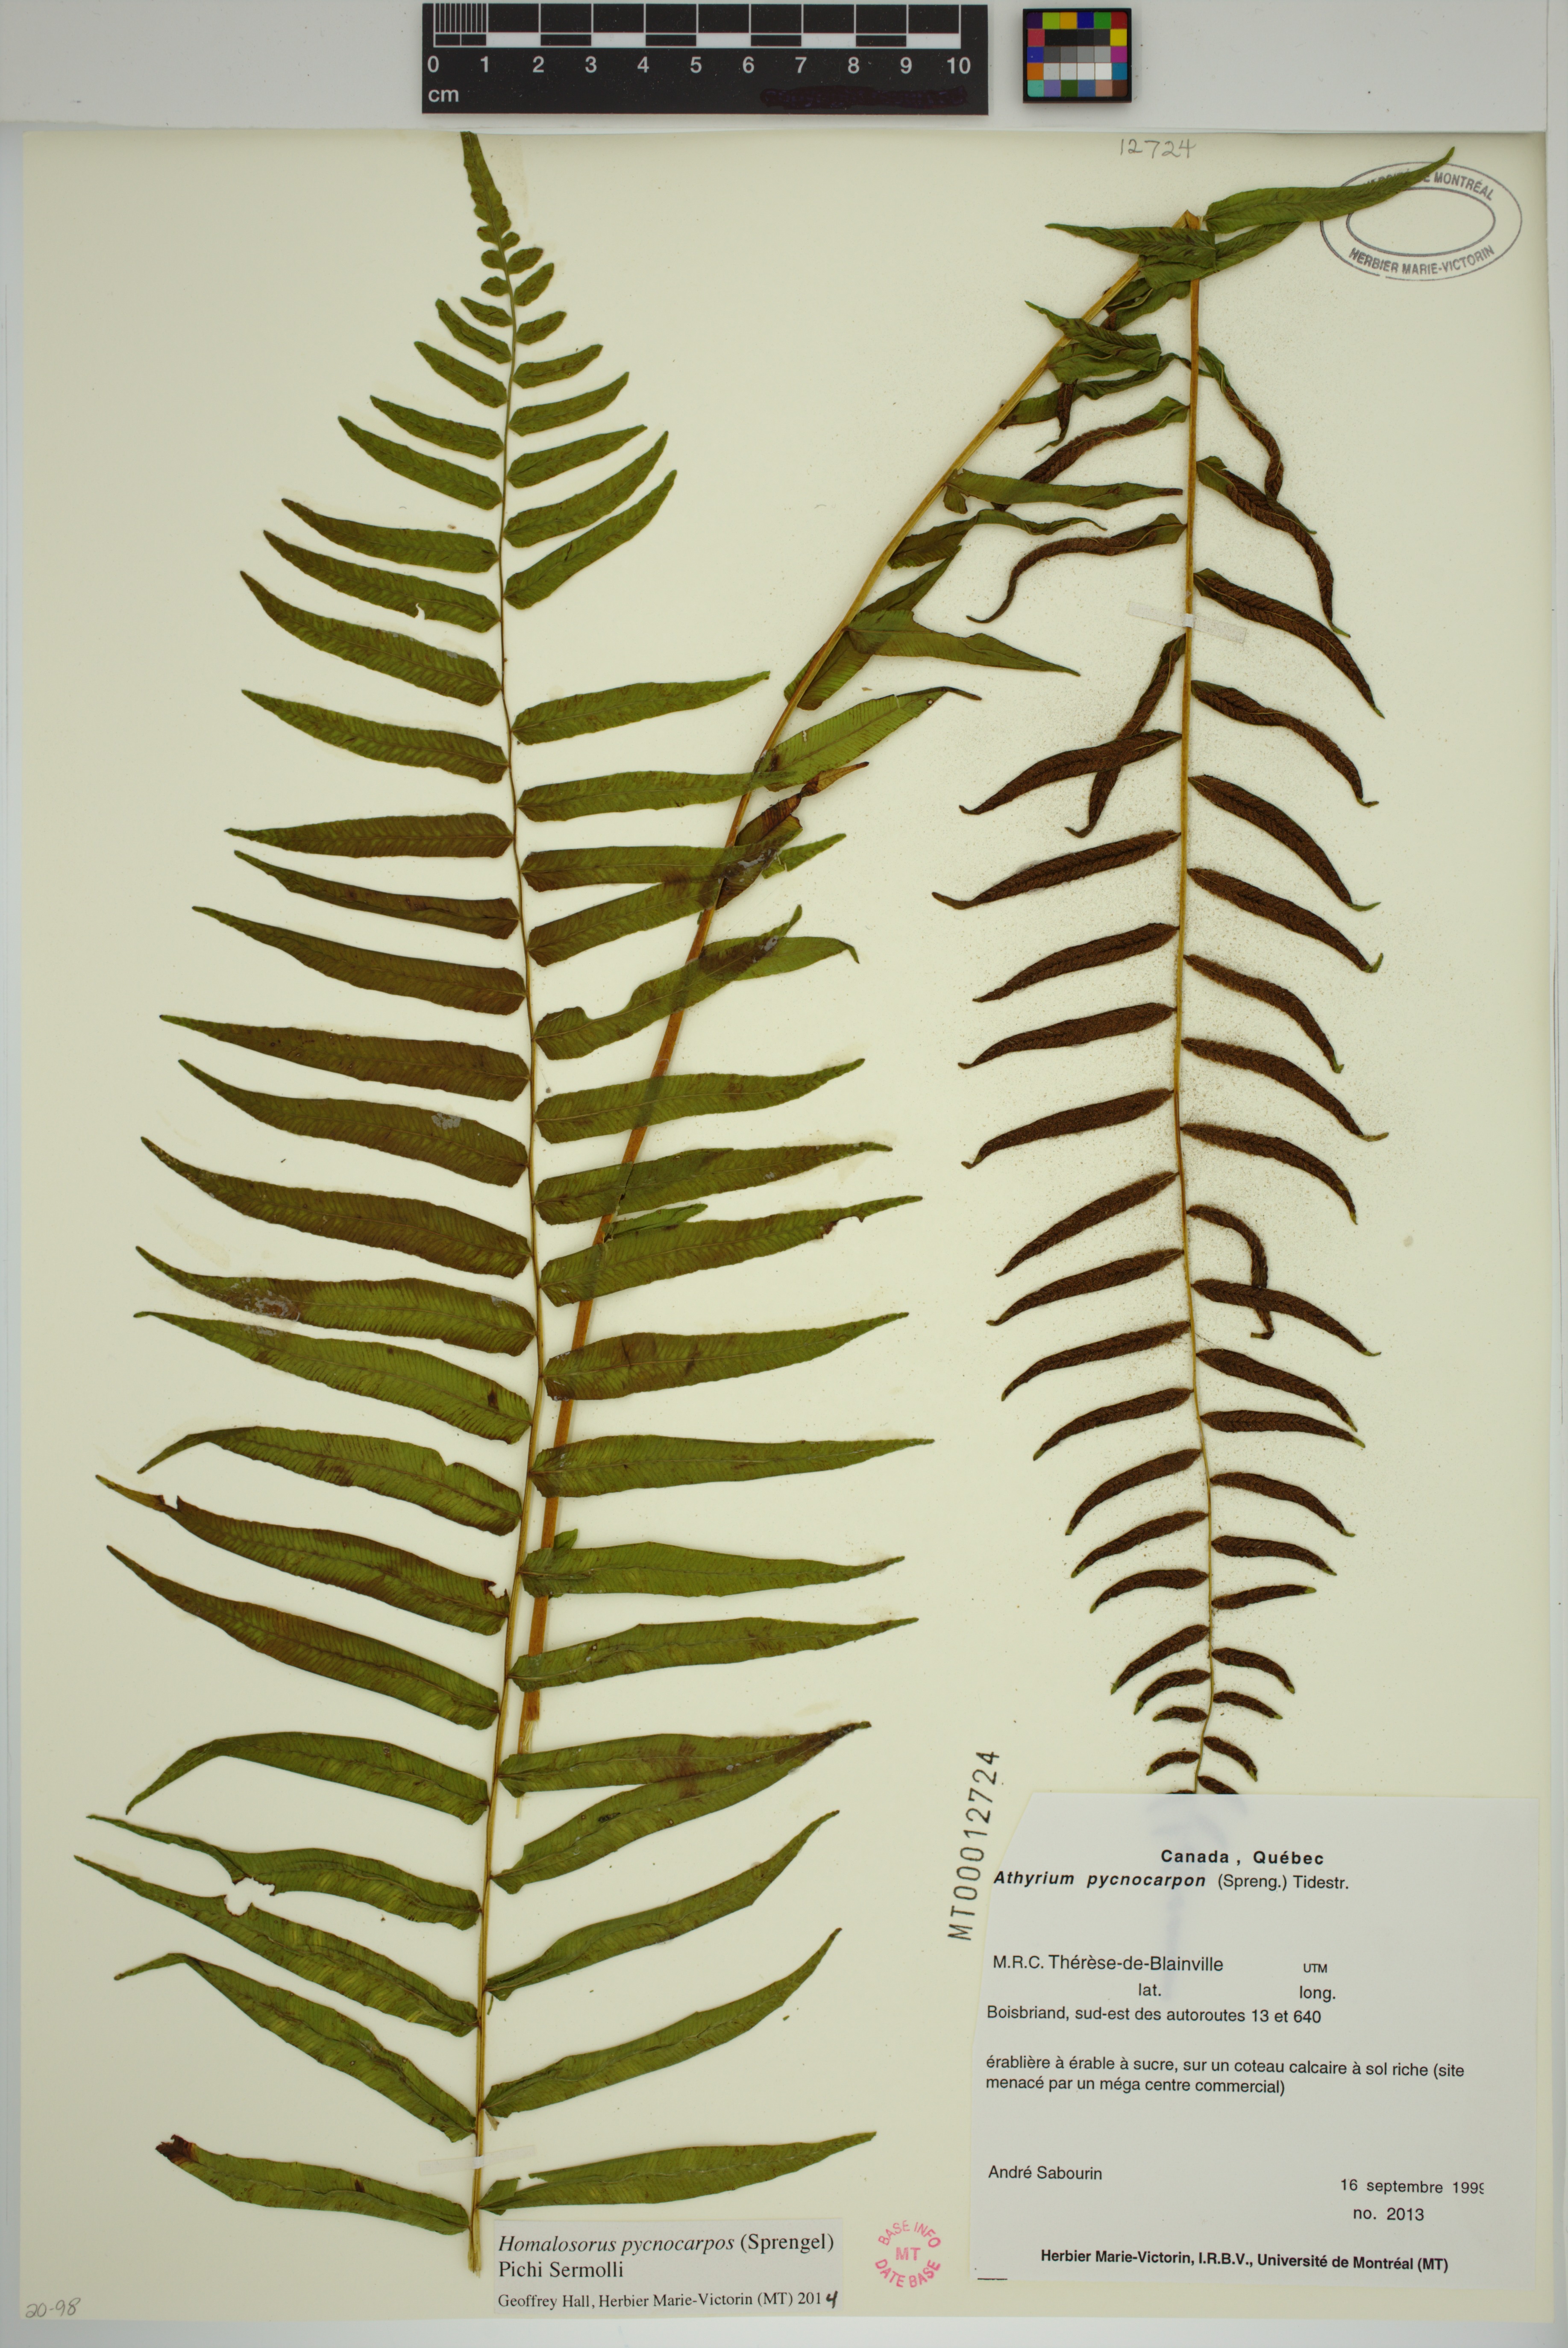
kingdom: Plantae
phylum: Tracheophyta
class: Polypodiopsida
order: Polypodiales
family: Diplaziopsidaceae
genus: Homalosorus
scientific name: Homalosorus pycnocarpos
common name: Glade fern
